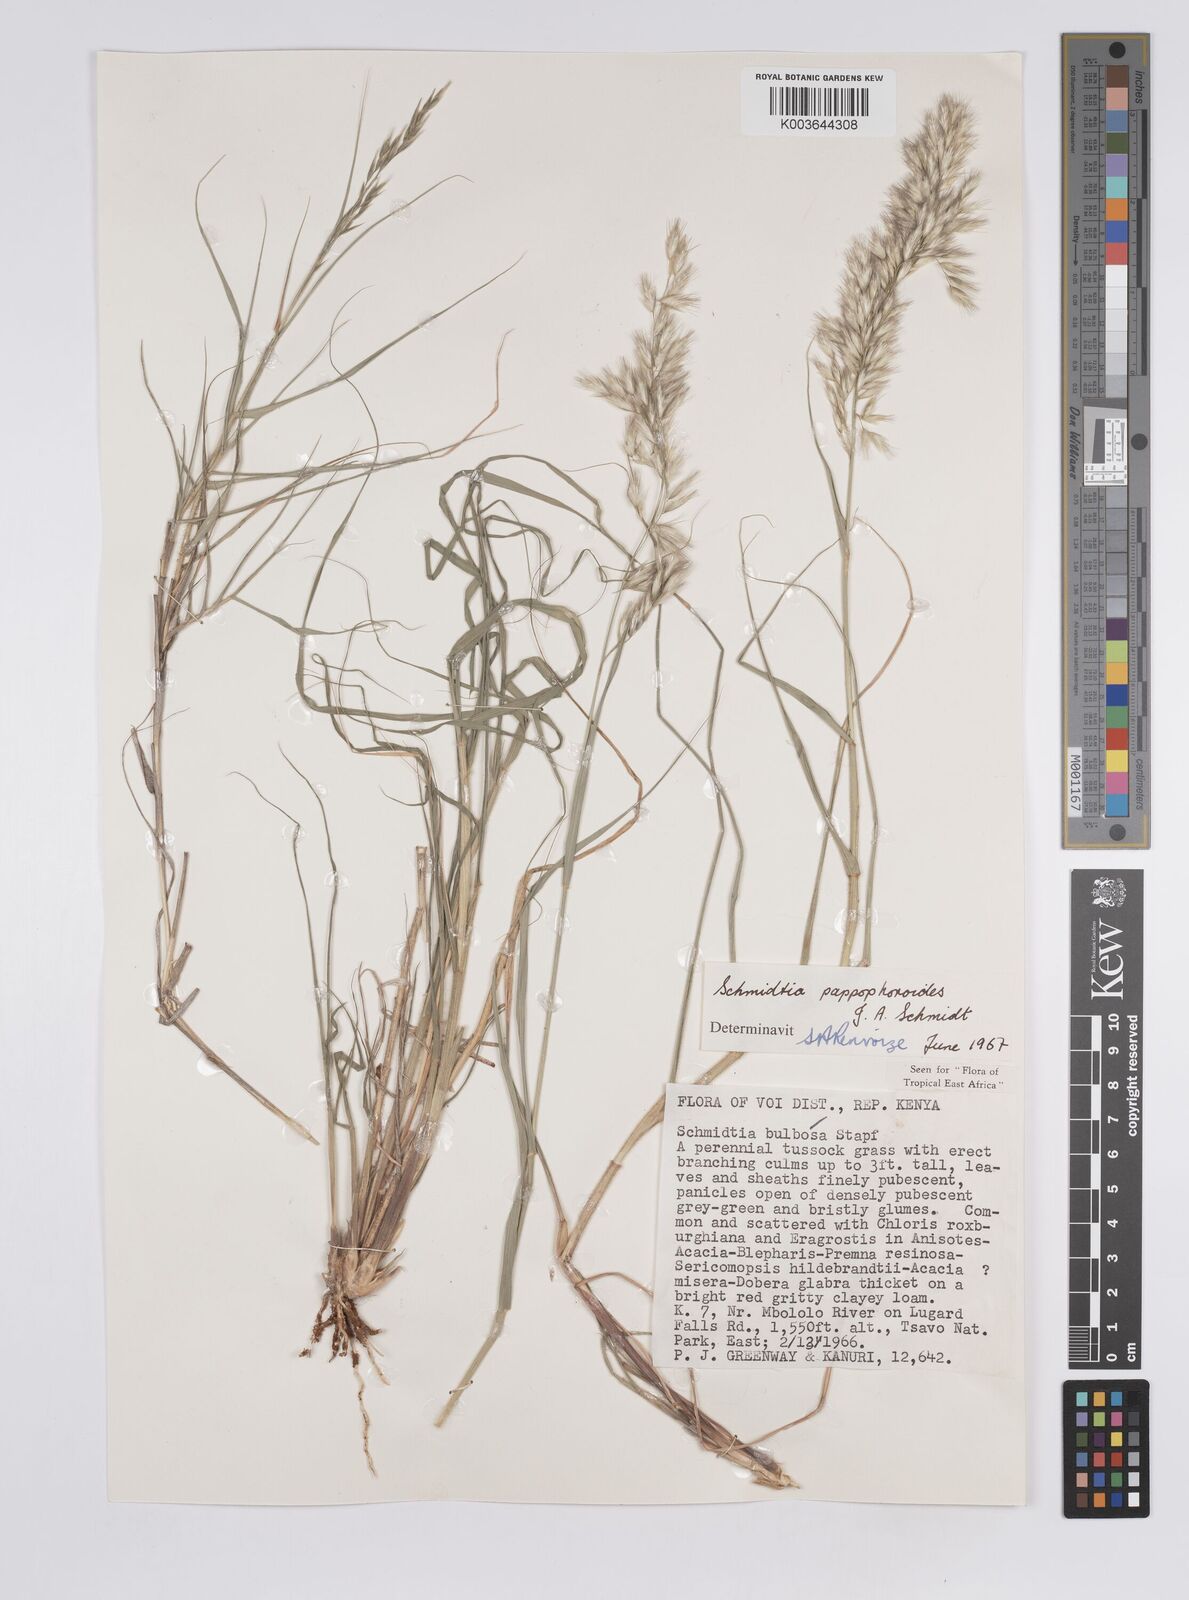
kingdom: Plantae
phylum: Tracheophyta
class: Liliopsida
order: Poales
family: Poaceae
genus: Schmidtia
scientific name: Schmidtia pappophoroides
